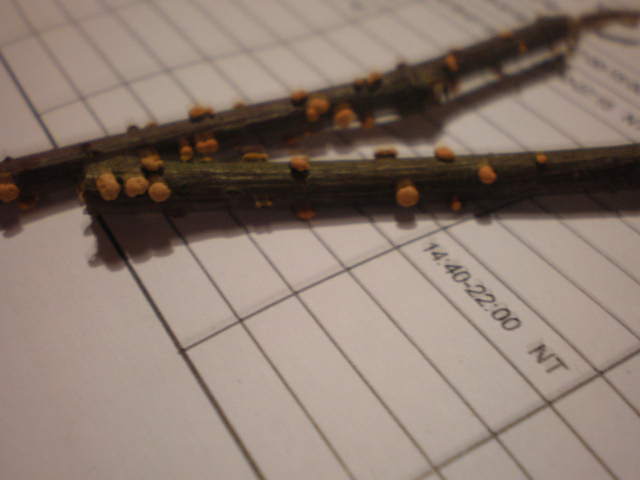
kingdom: Fungi
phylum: Ascomycota
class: Sordariomycetes
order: Hypocreales
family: Nectriaceae
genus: Nectria
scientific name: Nectria cinnabarina
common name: almindelig cinnobersvamp
